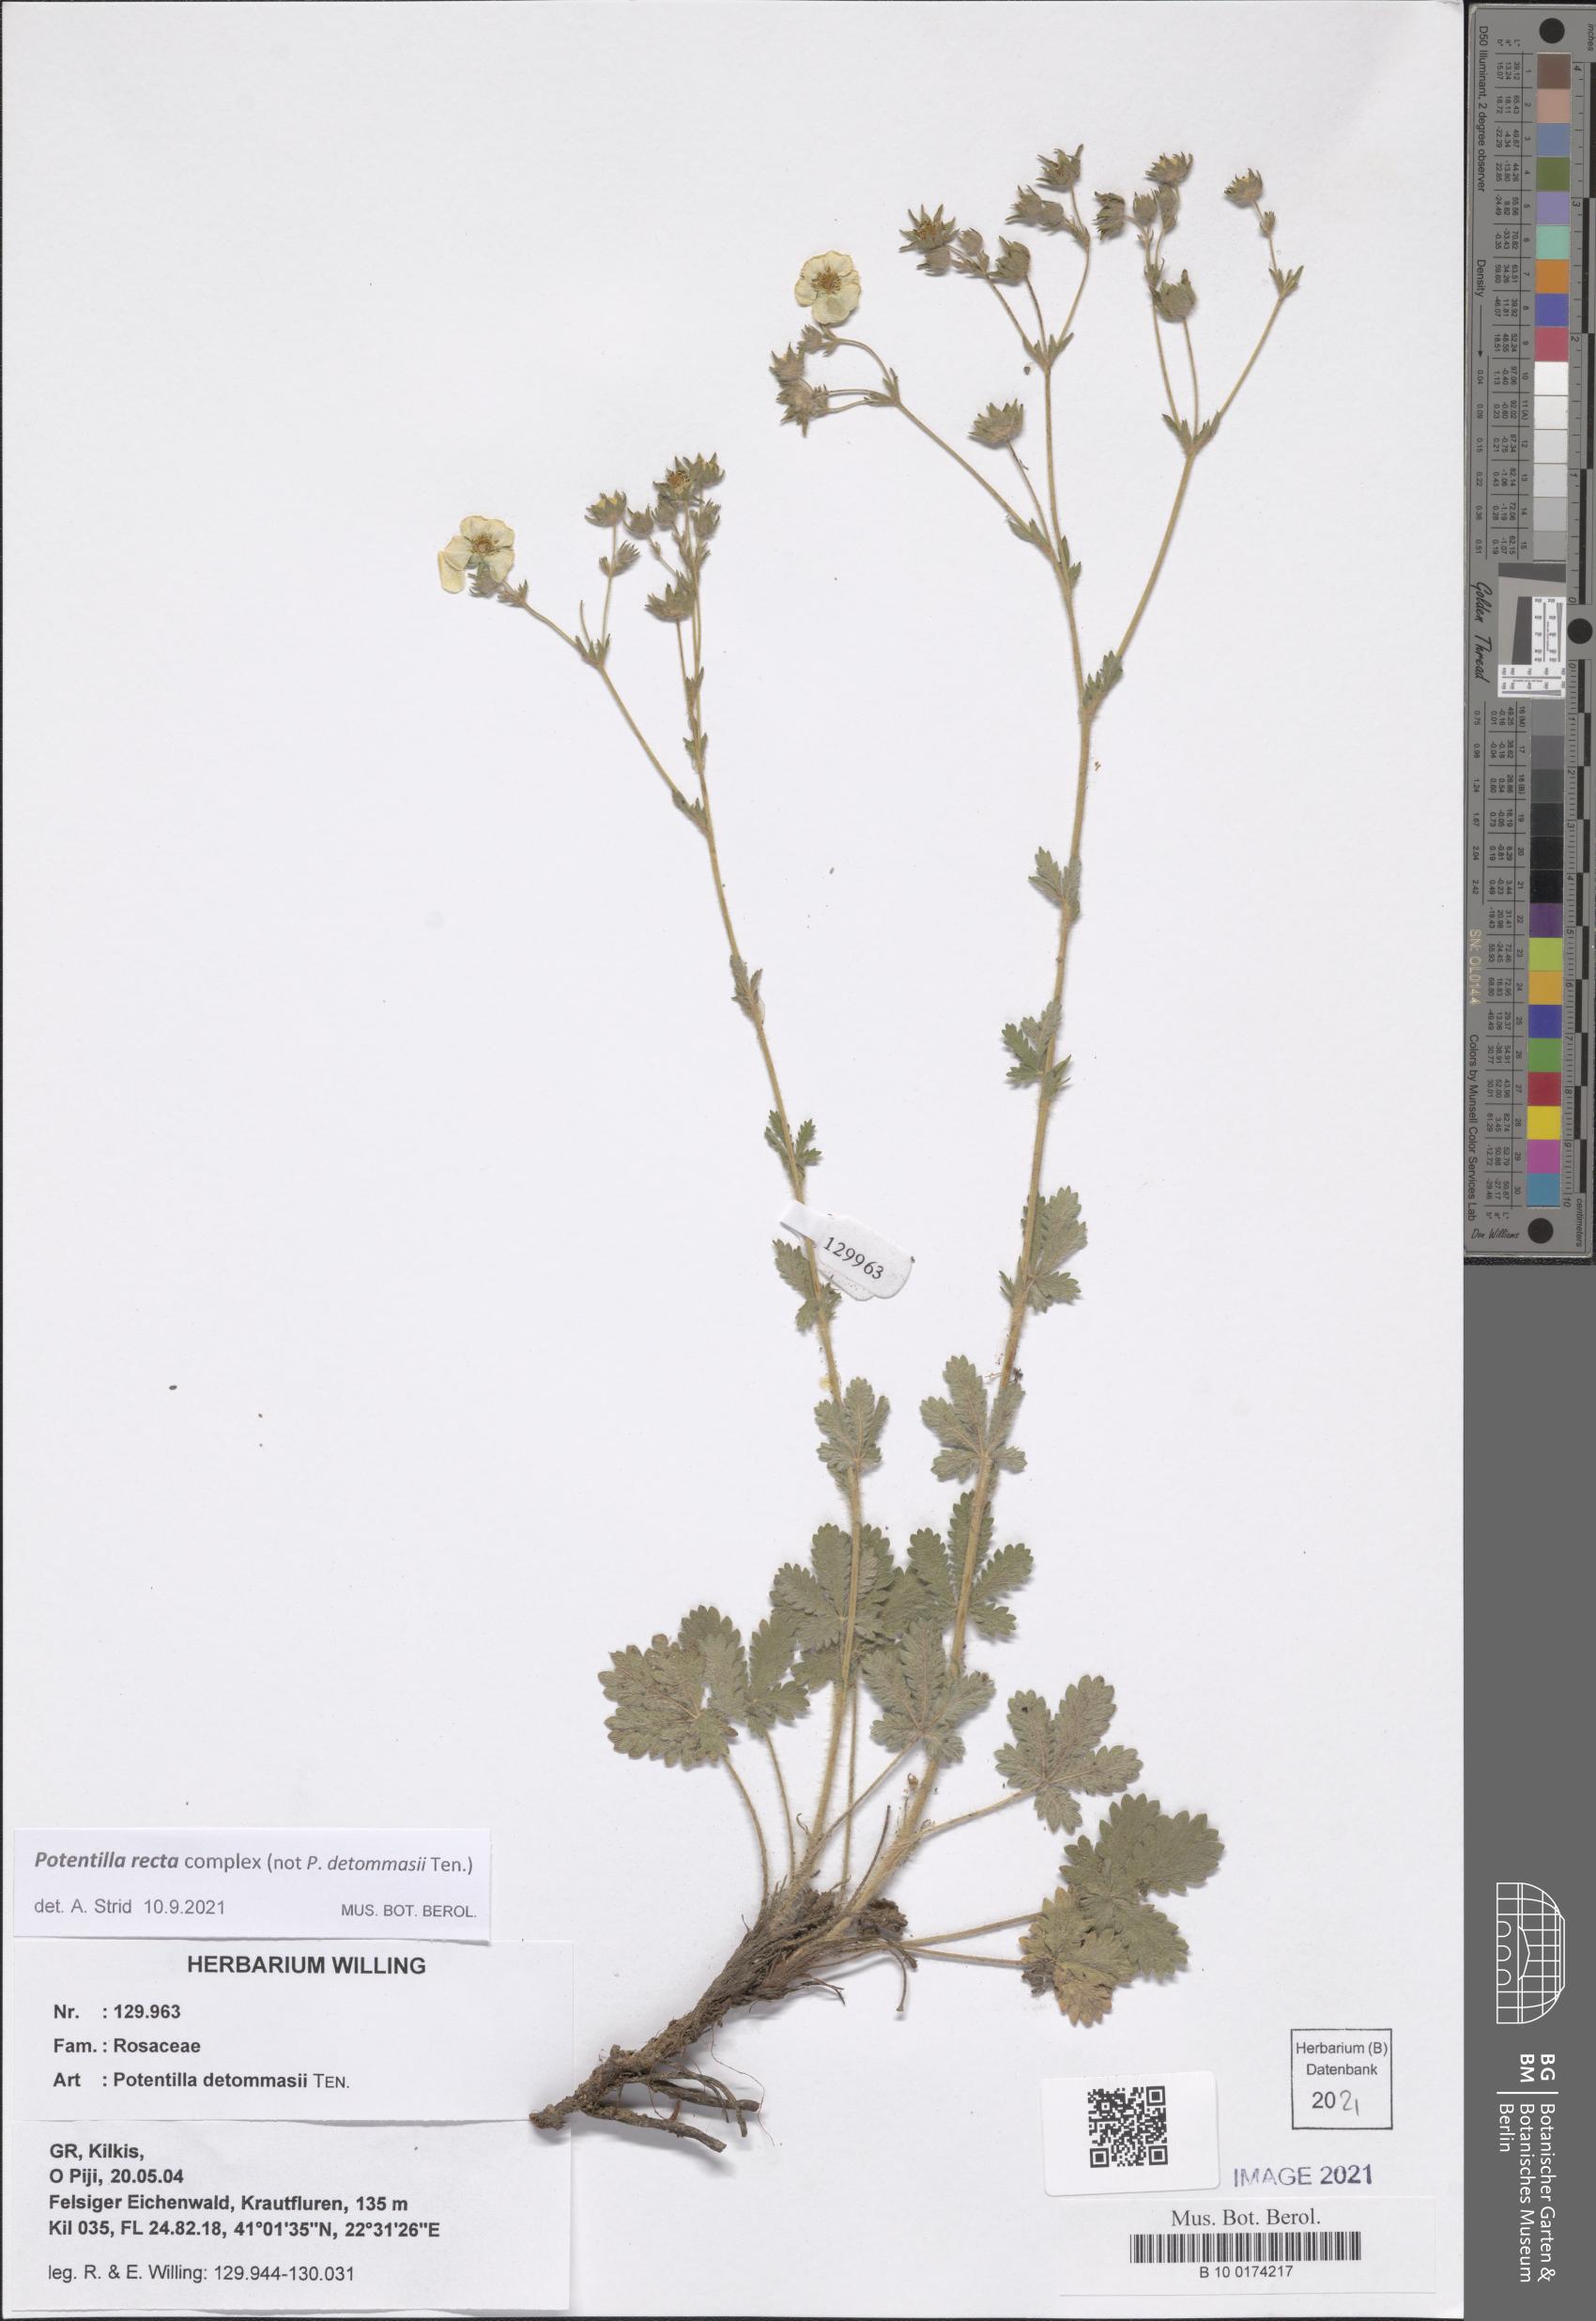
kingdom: Plantae
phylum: Tracheophyta
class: Magnoliopsida
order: Rosales
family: Rosaceae
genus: Potentilla
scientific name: Potentilla recta
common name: Sulphur cinquefoil
